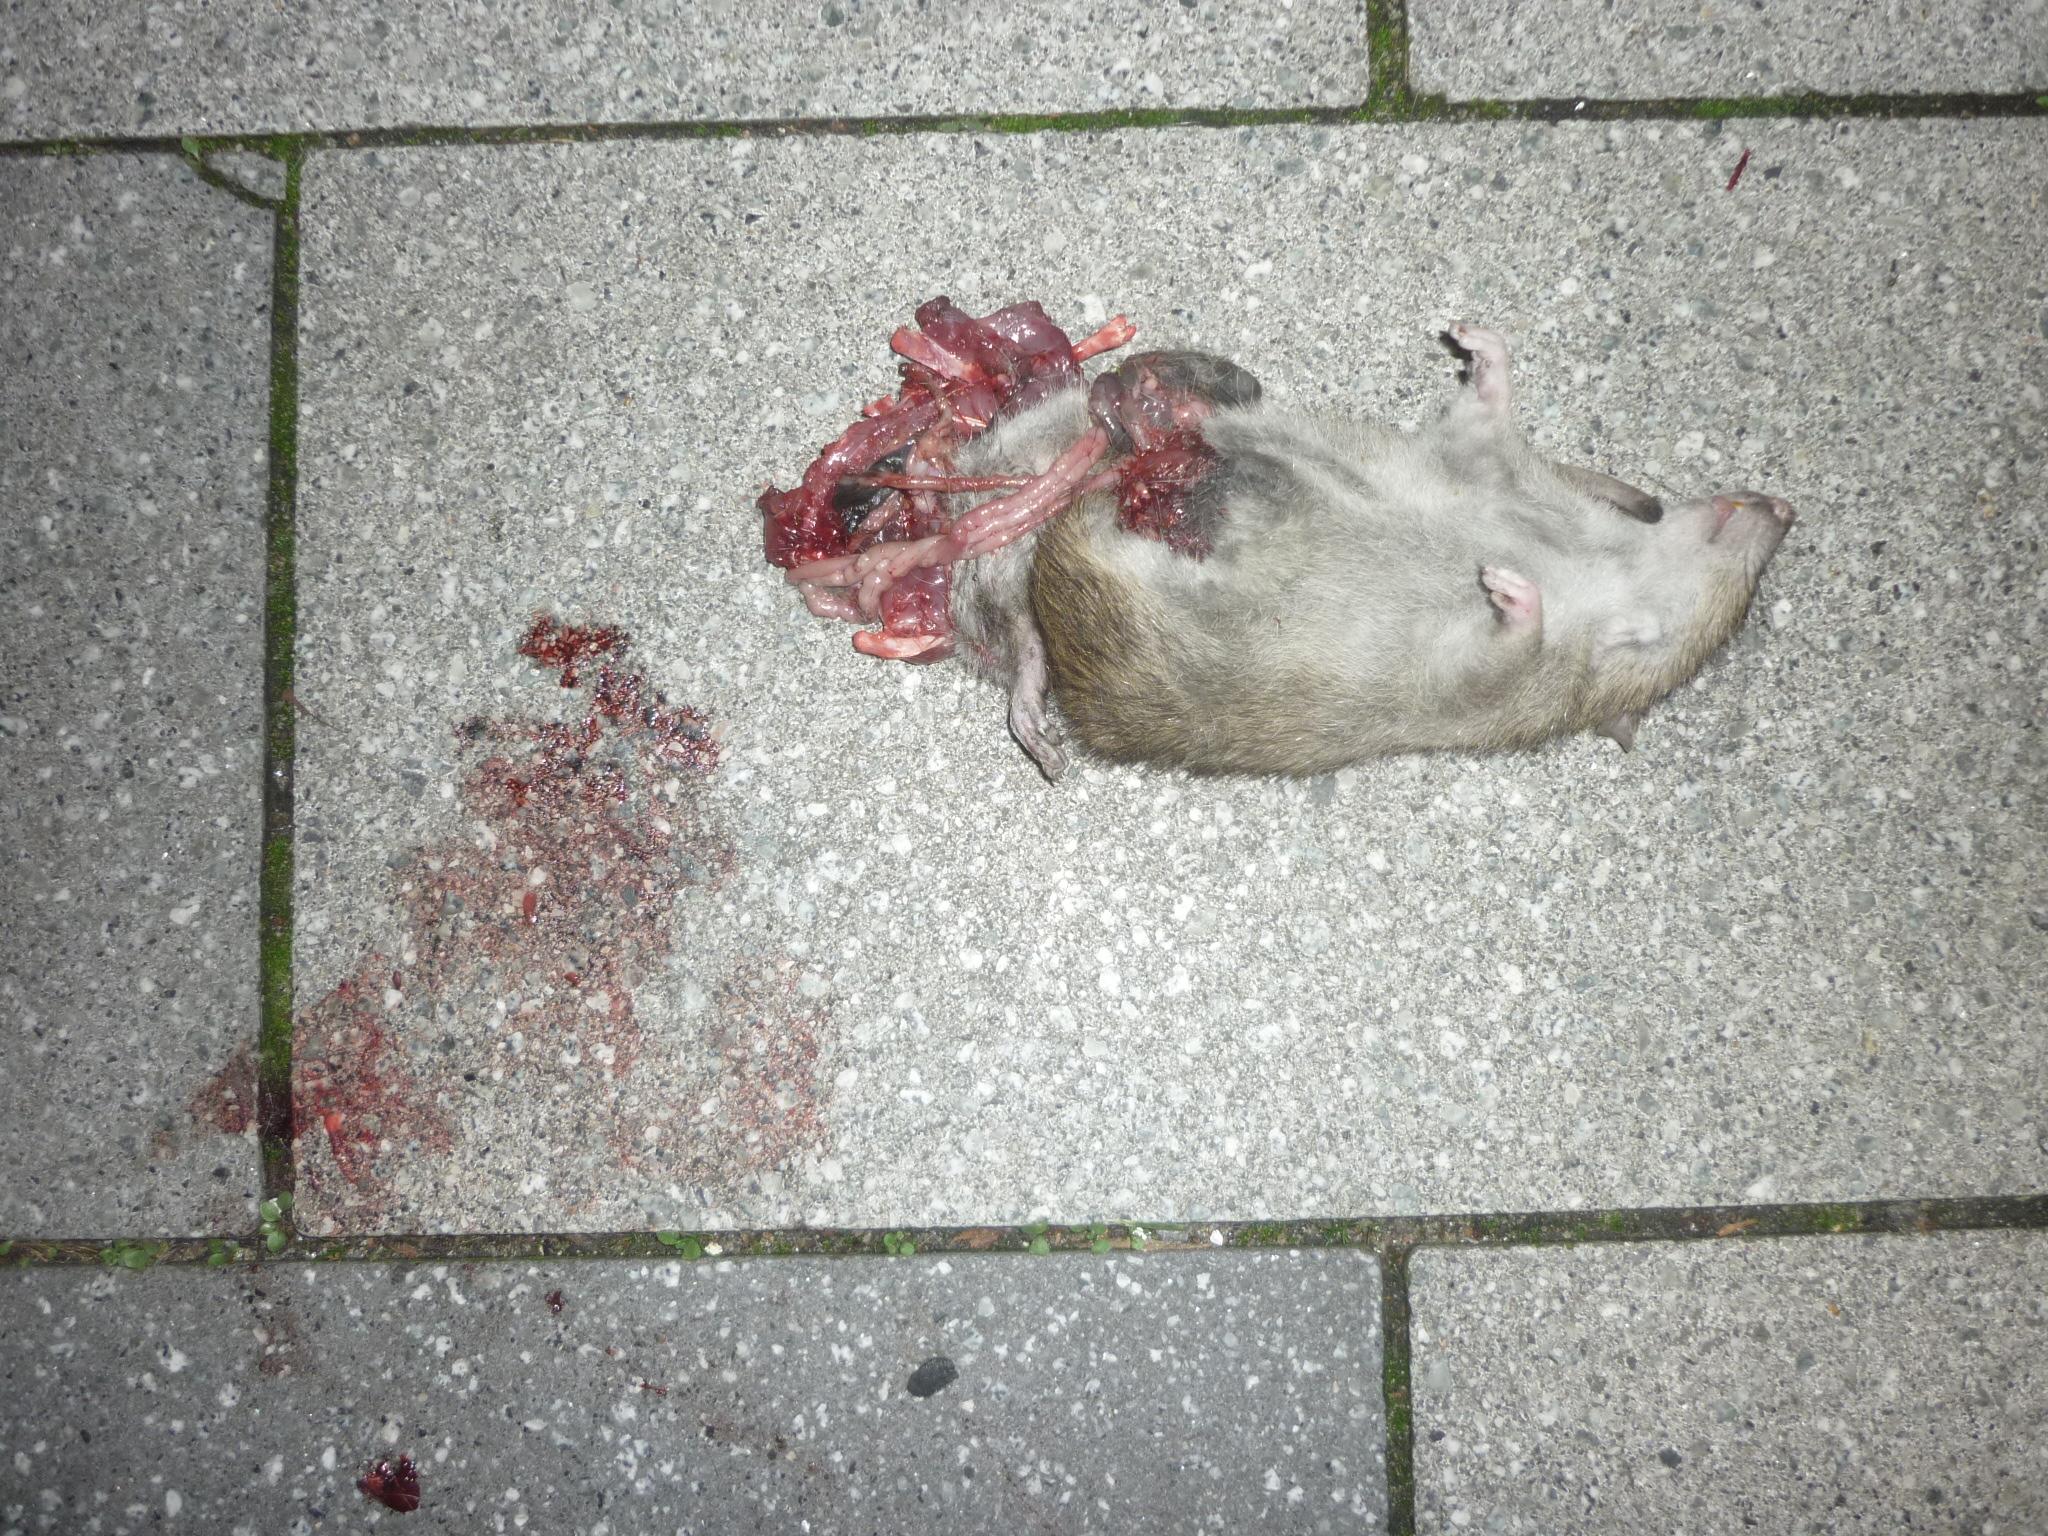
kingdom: Animalia
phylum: Chordata
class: Mammalia
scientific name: Mammalia
